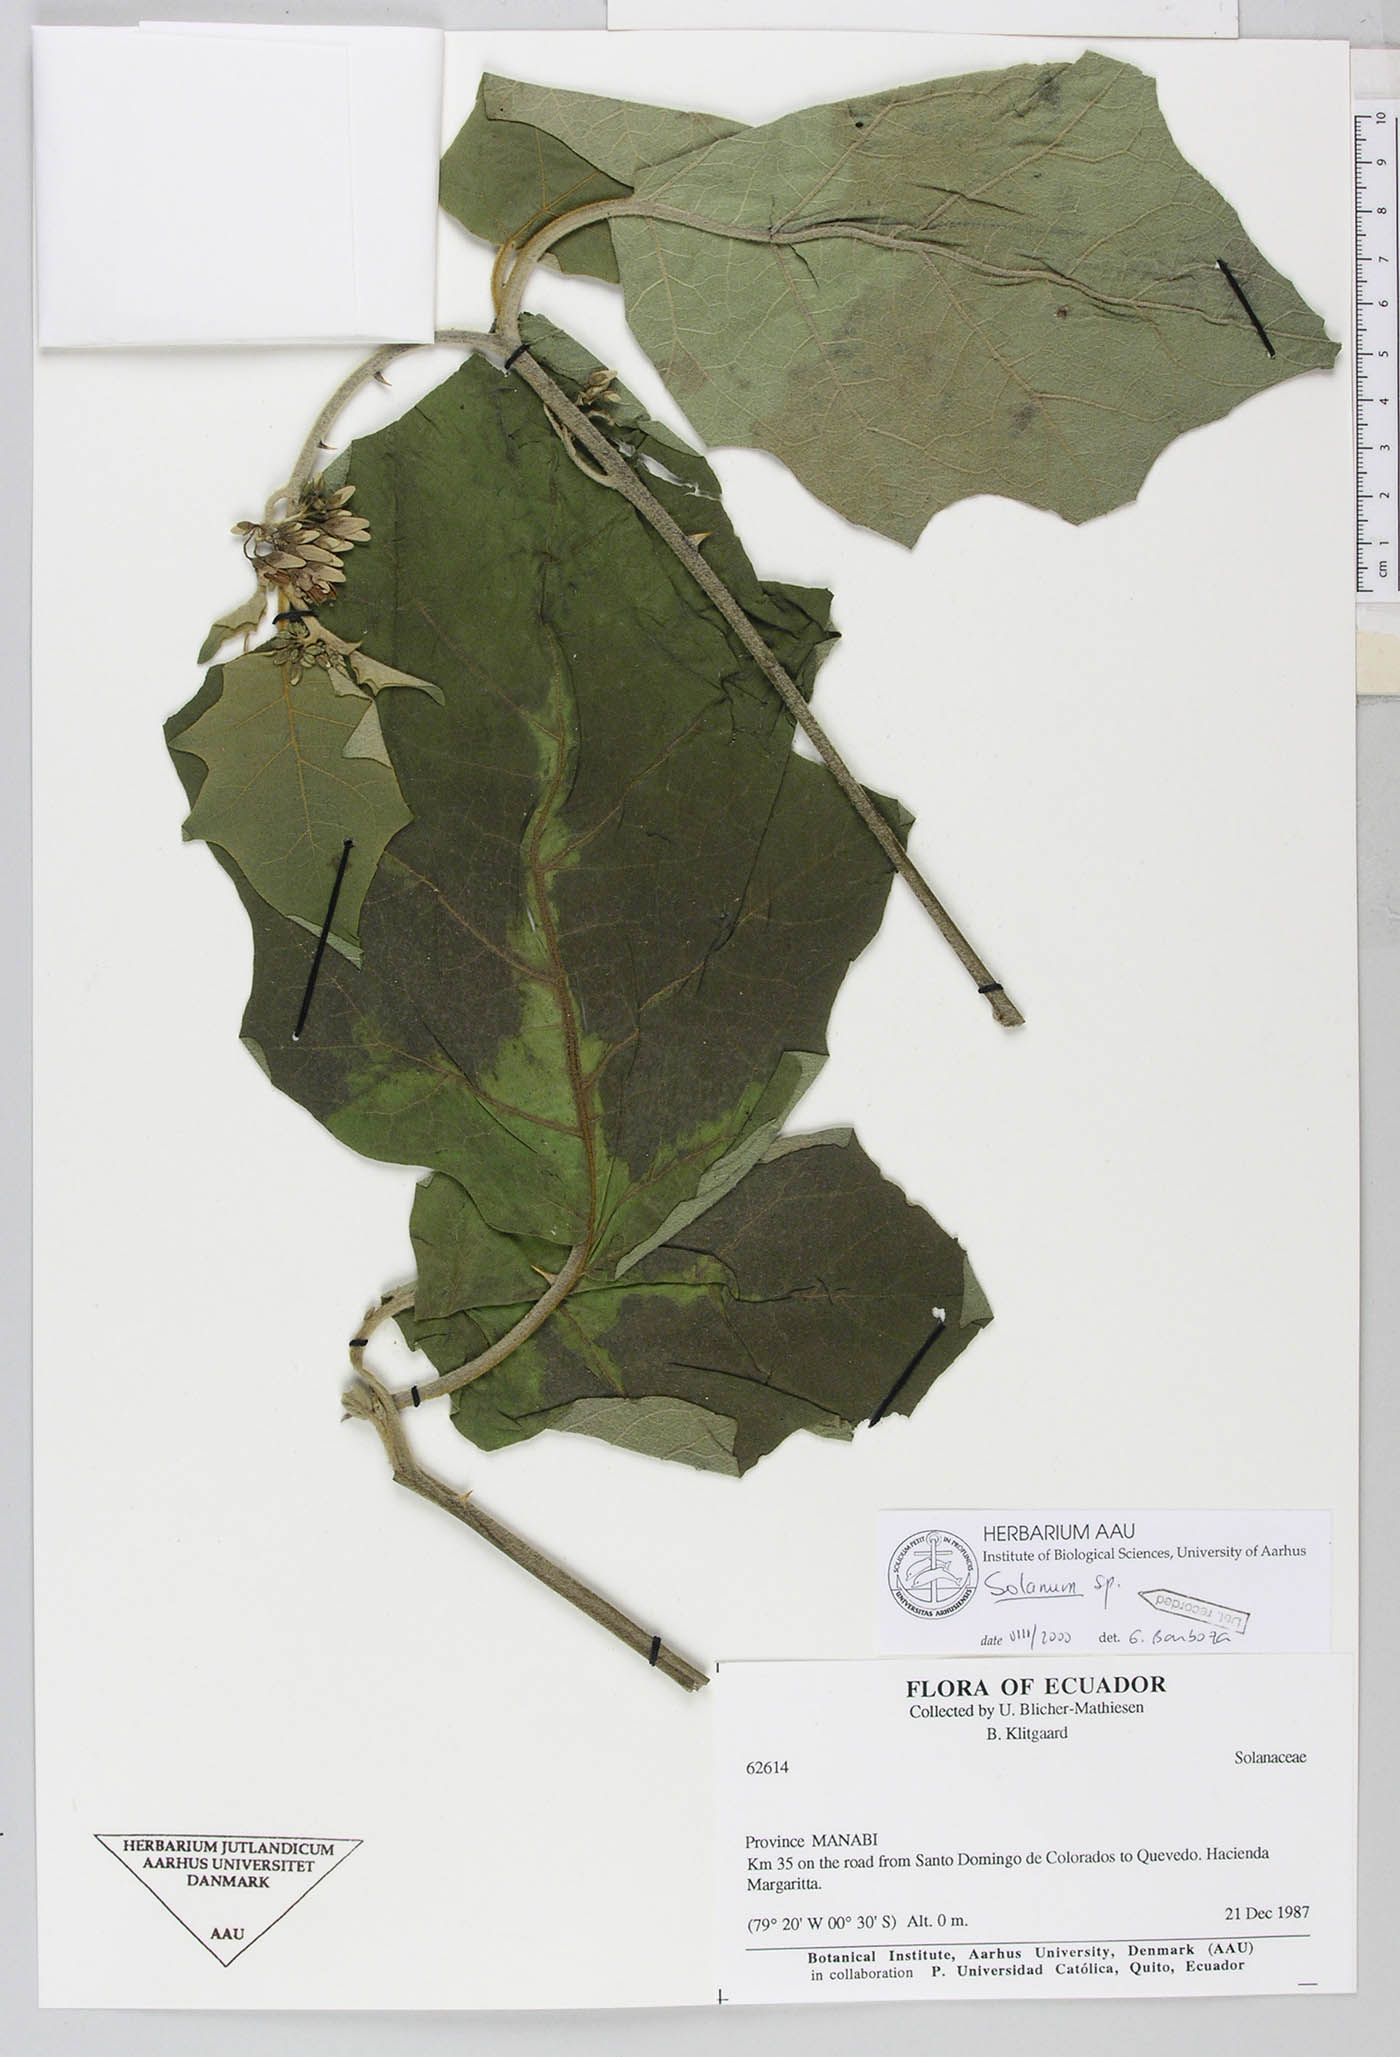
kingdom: Plantae
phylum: Tracheophyta
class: Magnoliopsida
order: Solanales
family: Solanaceae
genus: Solanum
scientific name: Solanum rude-pannum
